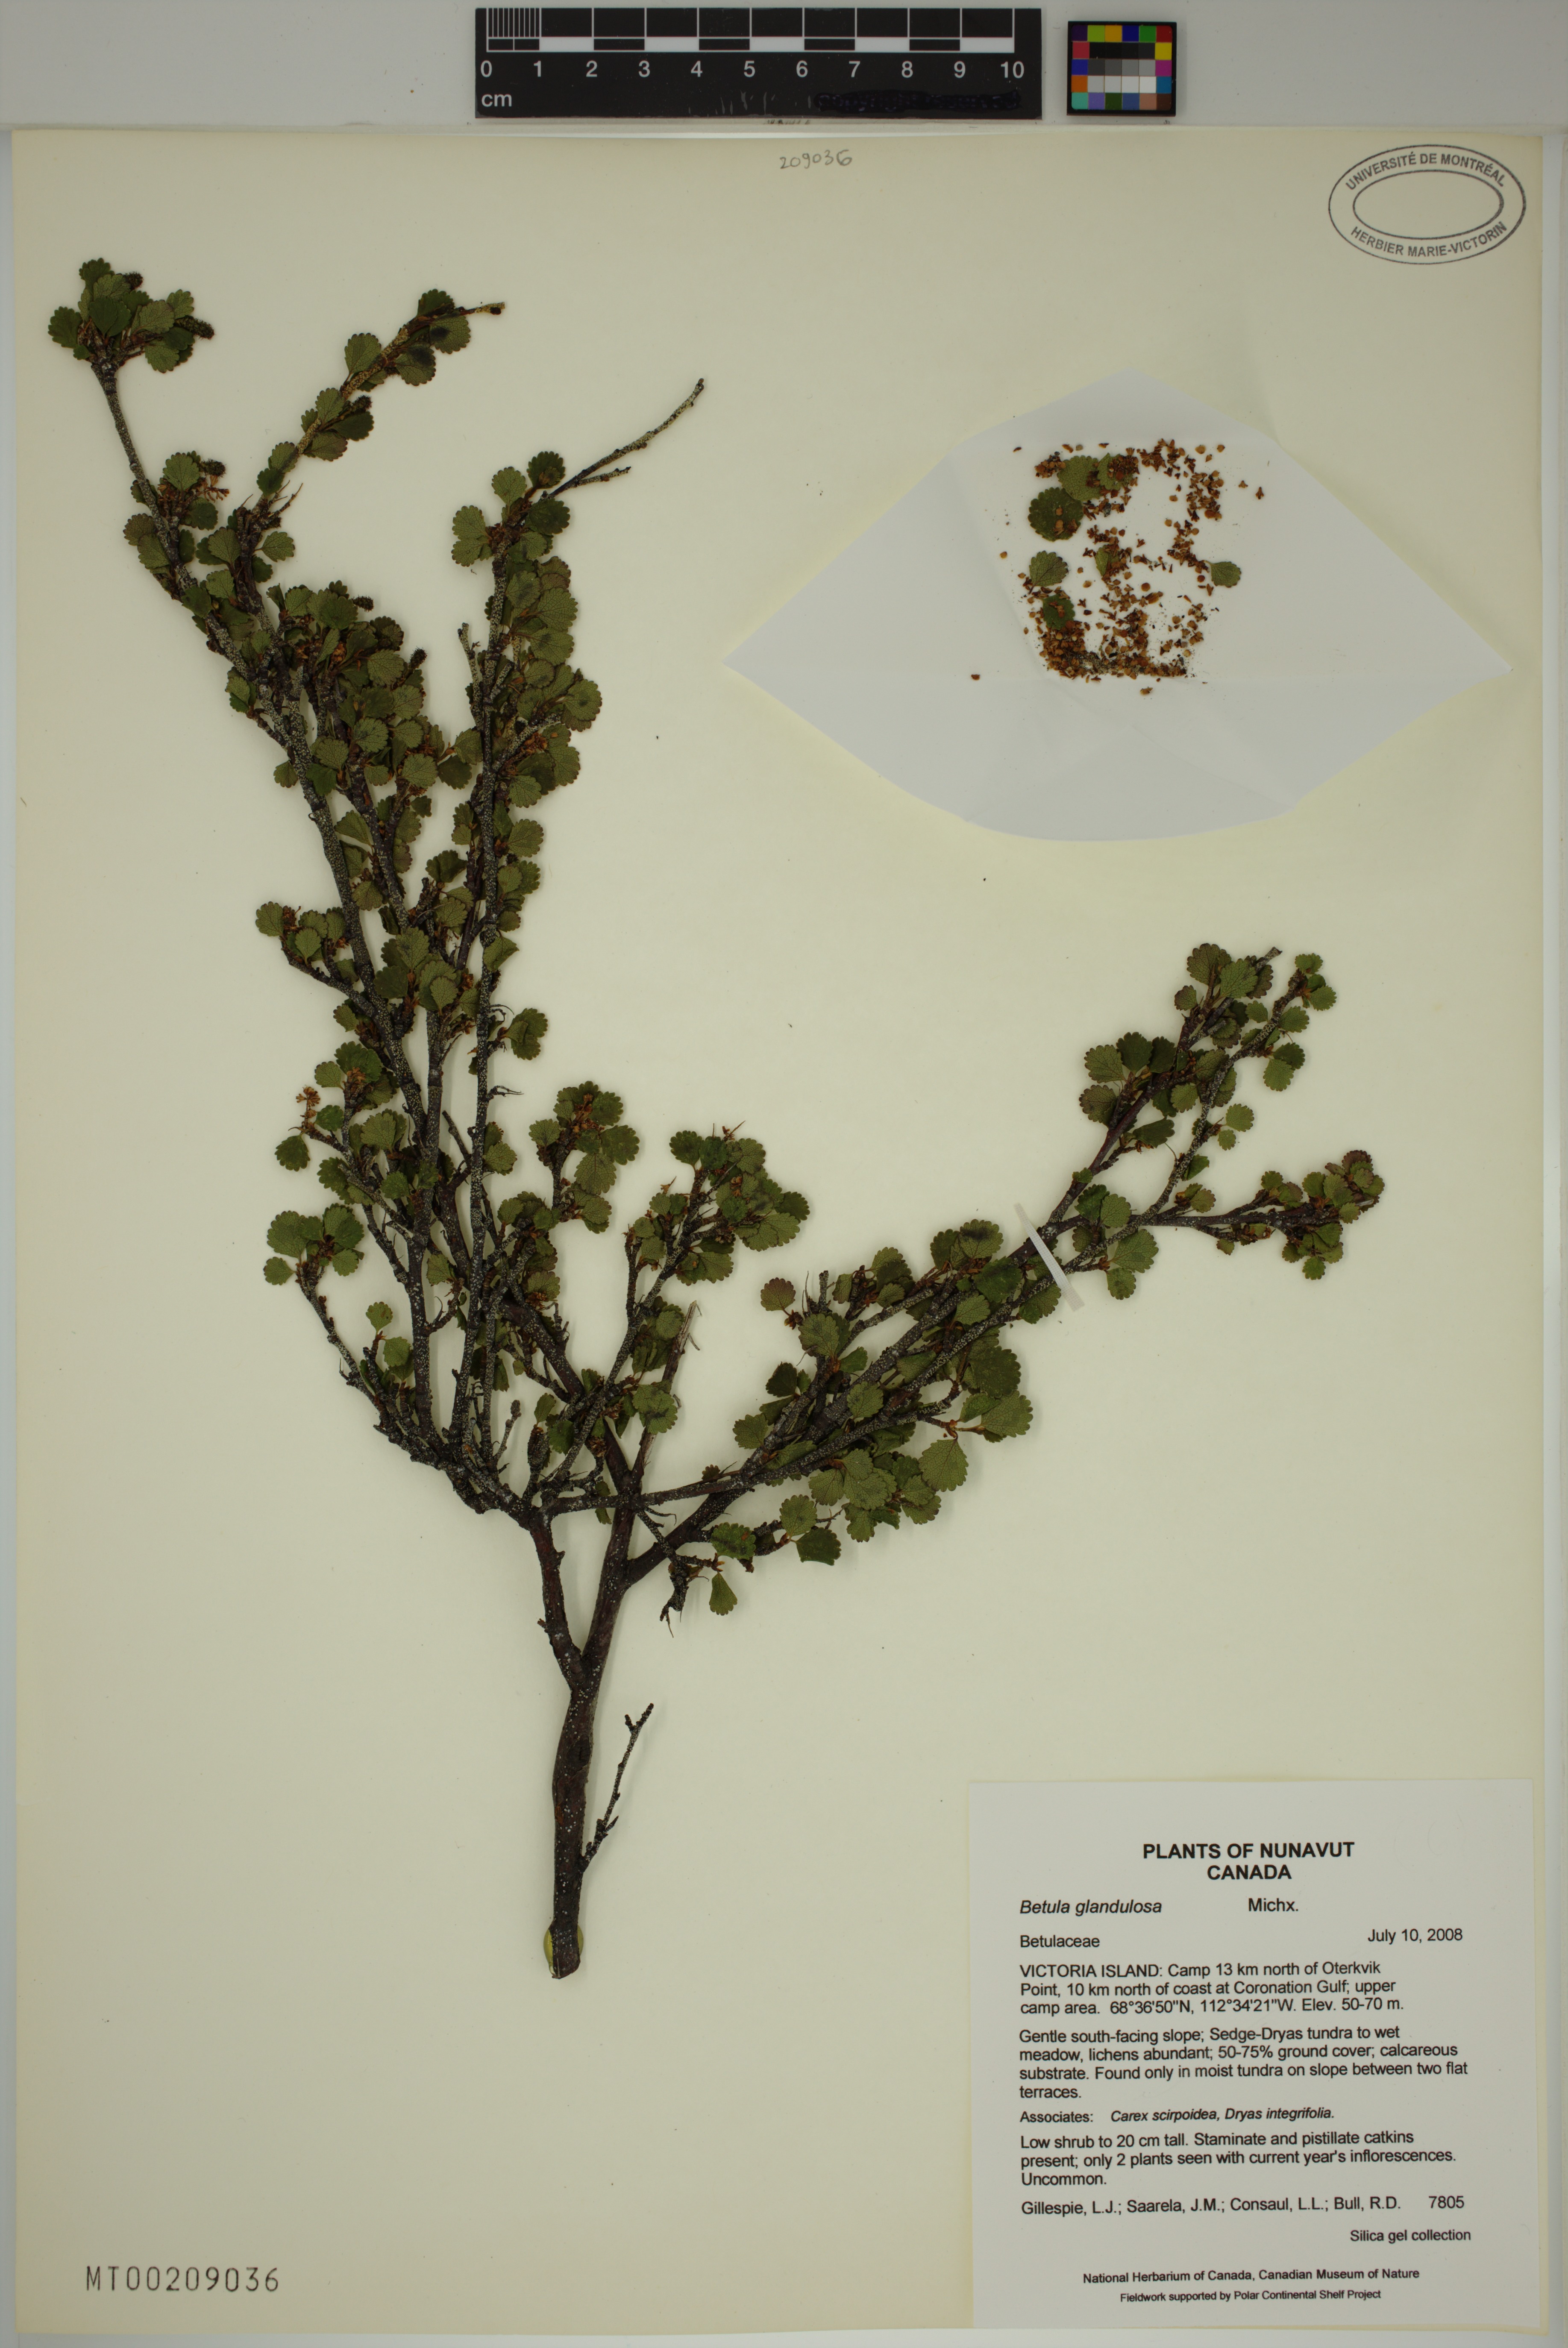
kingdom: Plantae
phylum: Tracheophyta
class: Magnoliopsida
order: Fagales
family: Betulaceae
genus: Betula
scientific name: Betula glandulosa
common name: Dwarf birch
